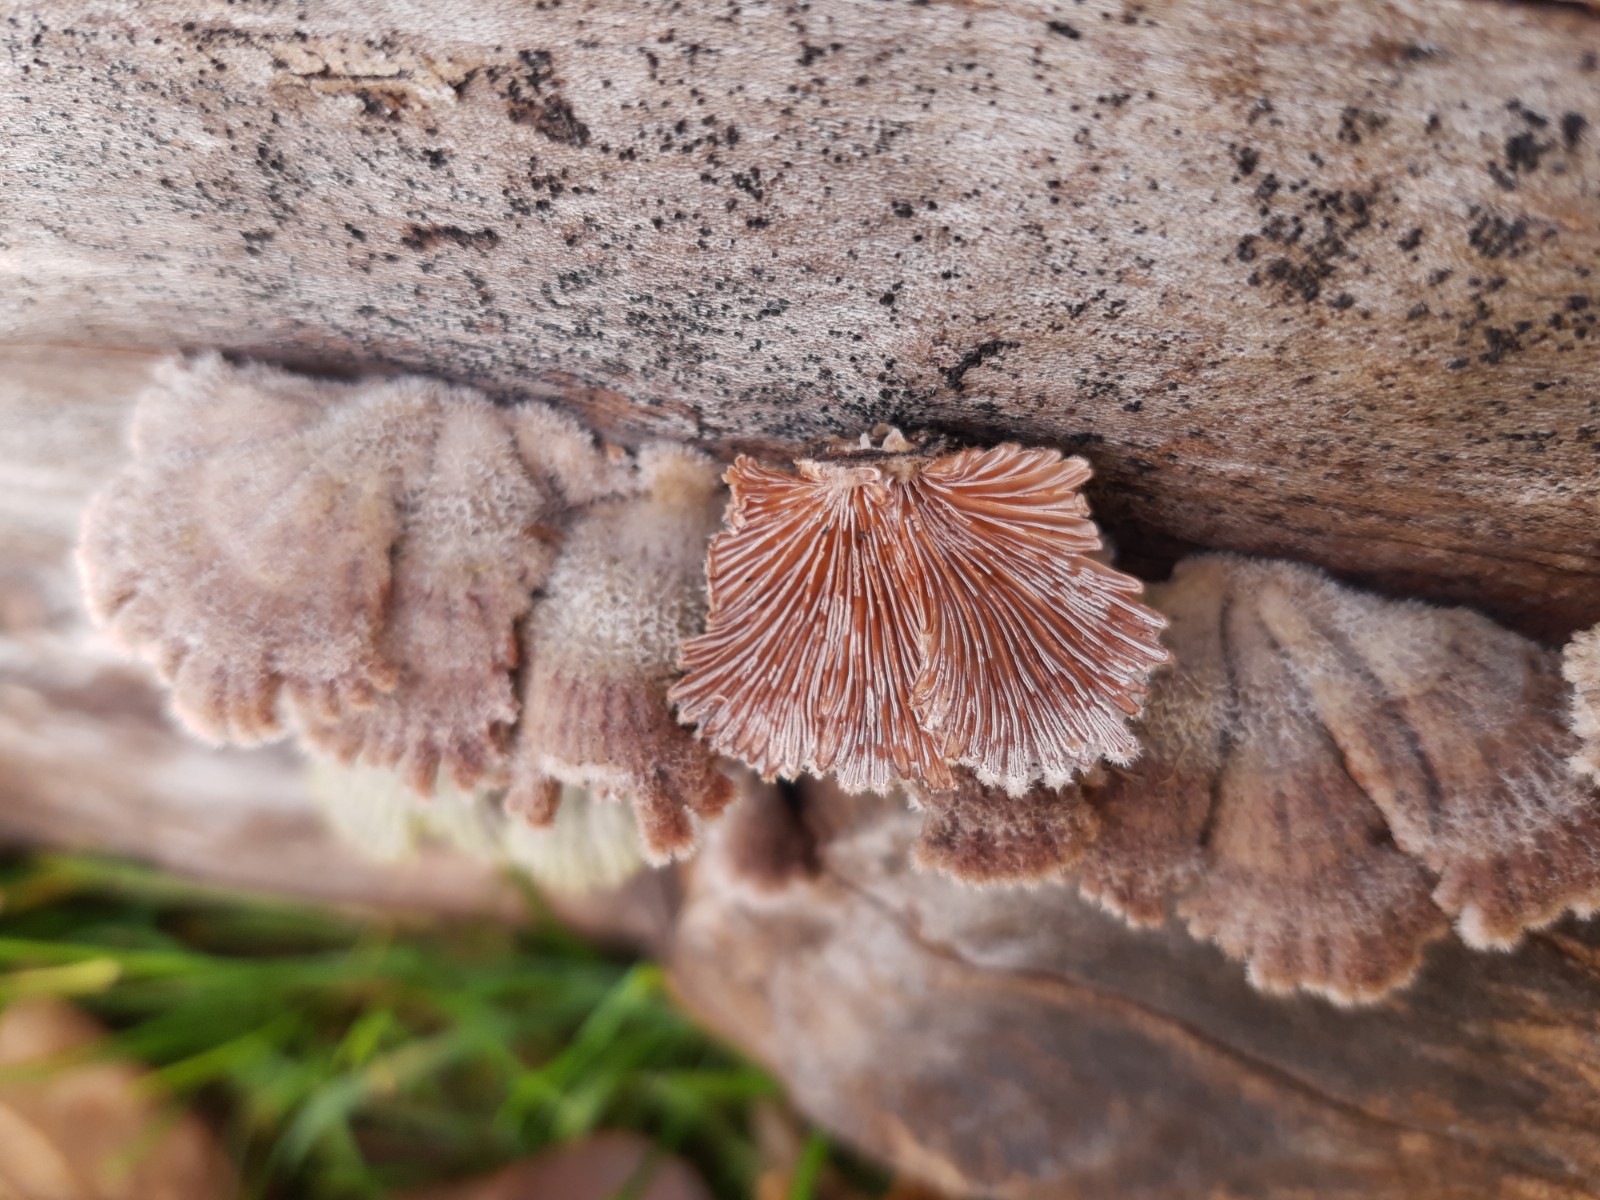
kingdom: Fungi
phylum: Basidiomycota
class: Agaricomycetes
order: Agaricales
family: Schizophyllaceae
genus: Schizophyllum
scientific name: Schizophyllum commune
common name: kløvblad
